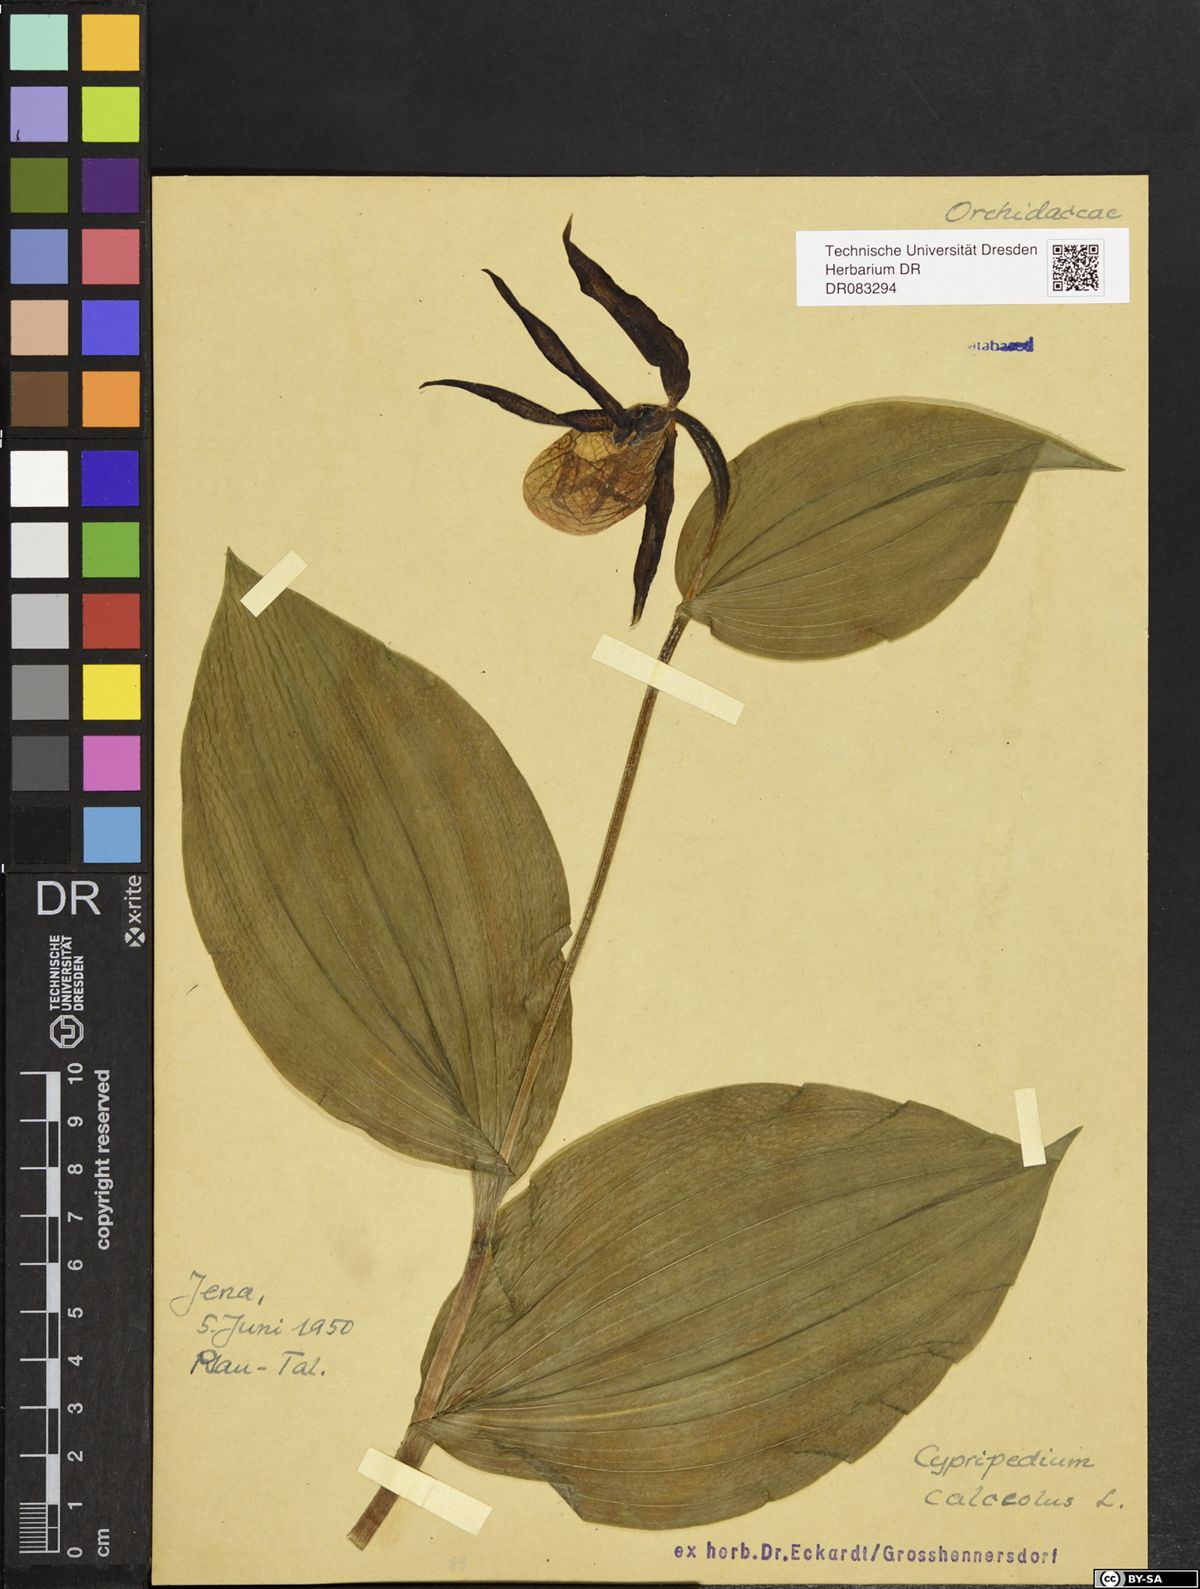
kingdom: Plantae
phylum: Tracheophyta
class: Liliopsida
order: Asparagales
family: Orchidaceae
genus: Cypripedium
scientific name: Cypripedium calceolus
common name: Lady's-slipper
